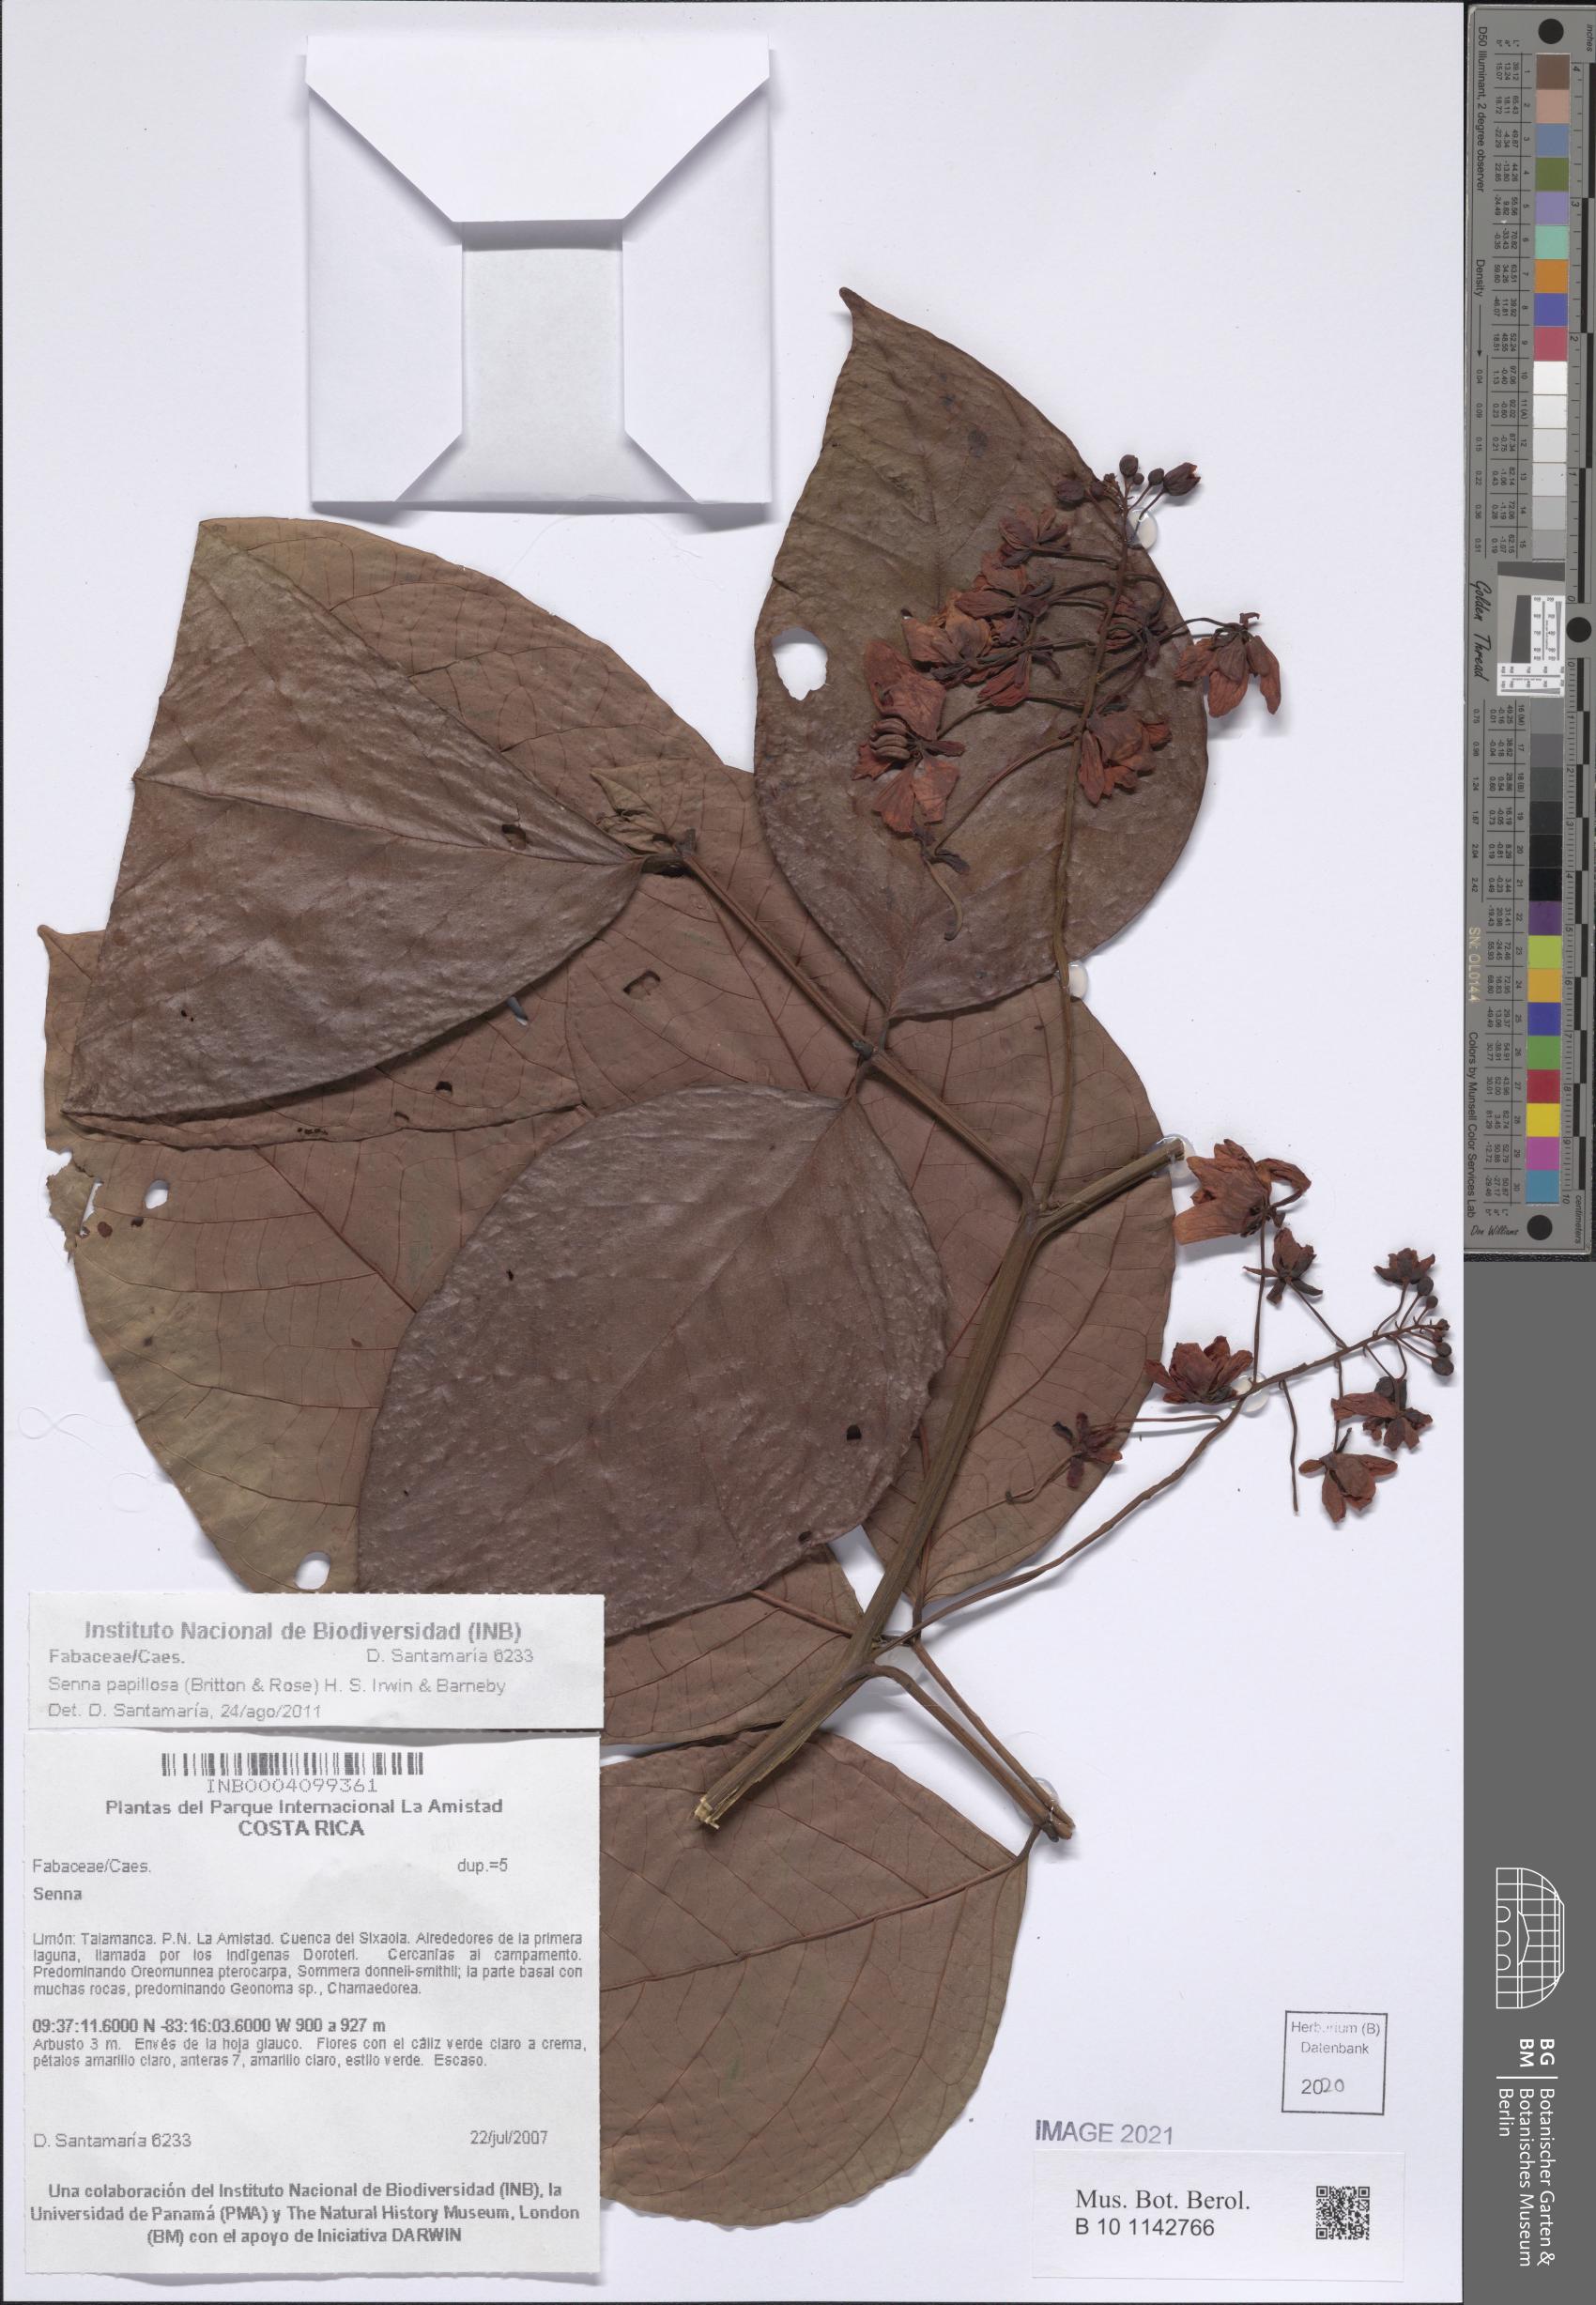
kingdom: Plantae
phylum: Tracheophyta
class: Magnoliopsida
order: Fabales
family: Fabaceae
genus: Senna
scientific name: Senna papillosa
